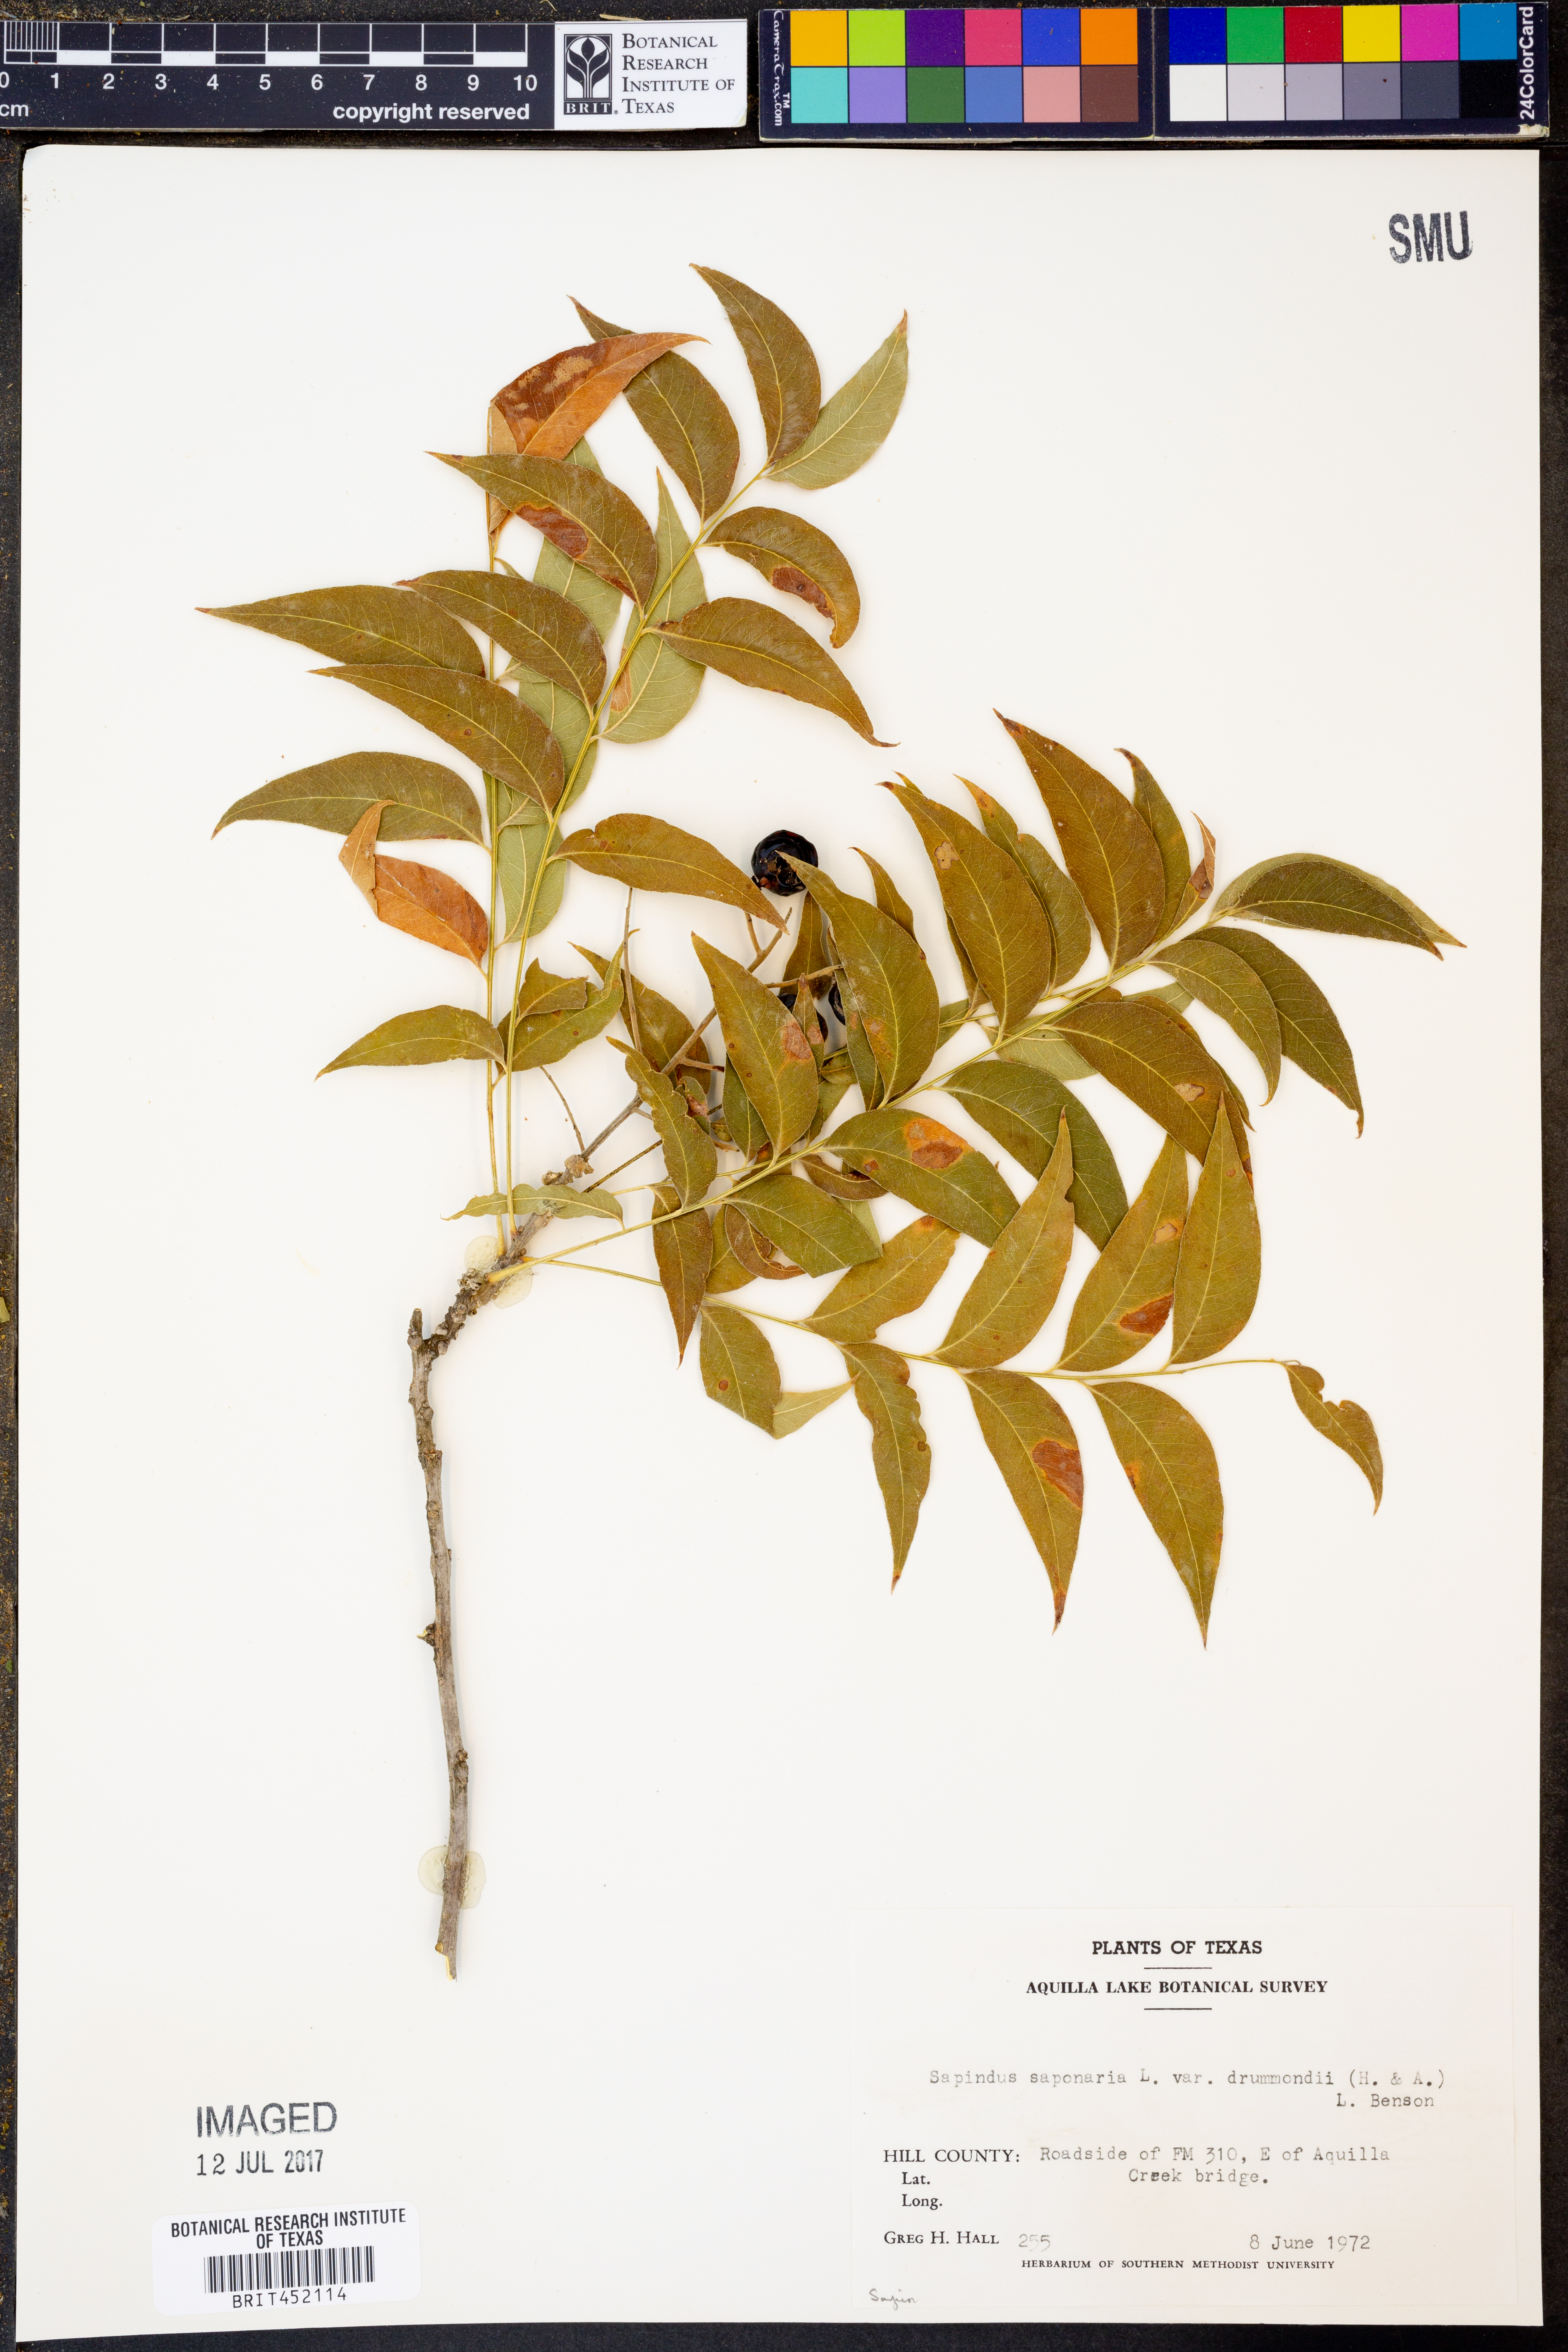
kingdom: Plantae
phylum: Tracheophyta
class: Magnoliopsida
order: Sapindales
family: Sapindaceae
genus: Sapindus
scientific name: Sapindus saponaria
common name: Wingleaf soapberry
